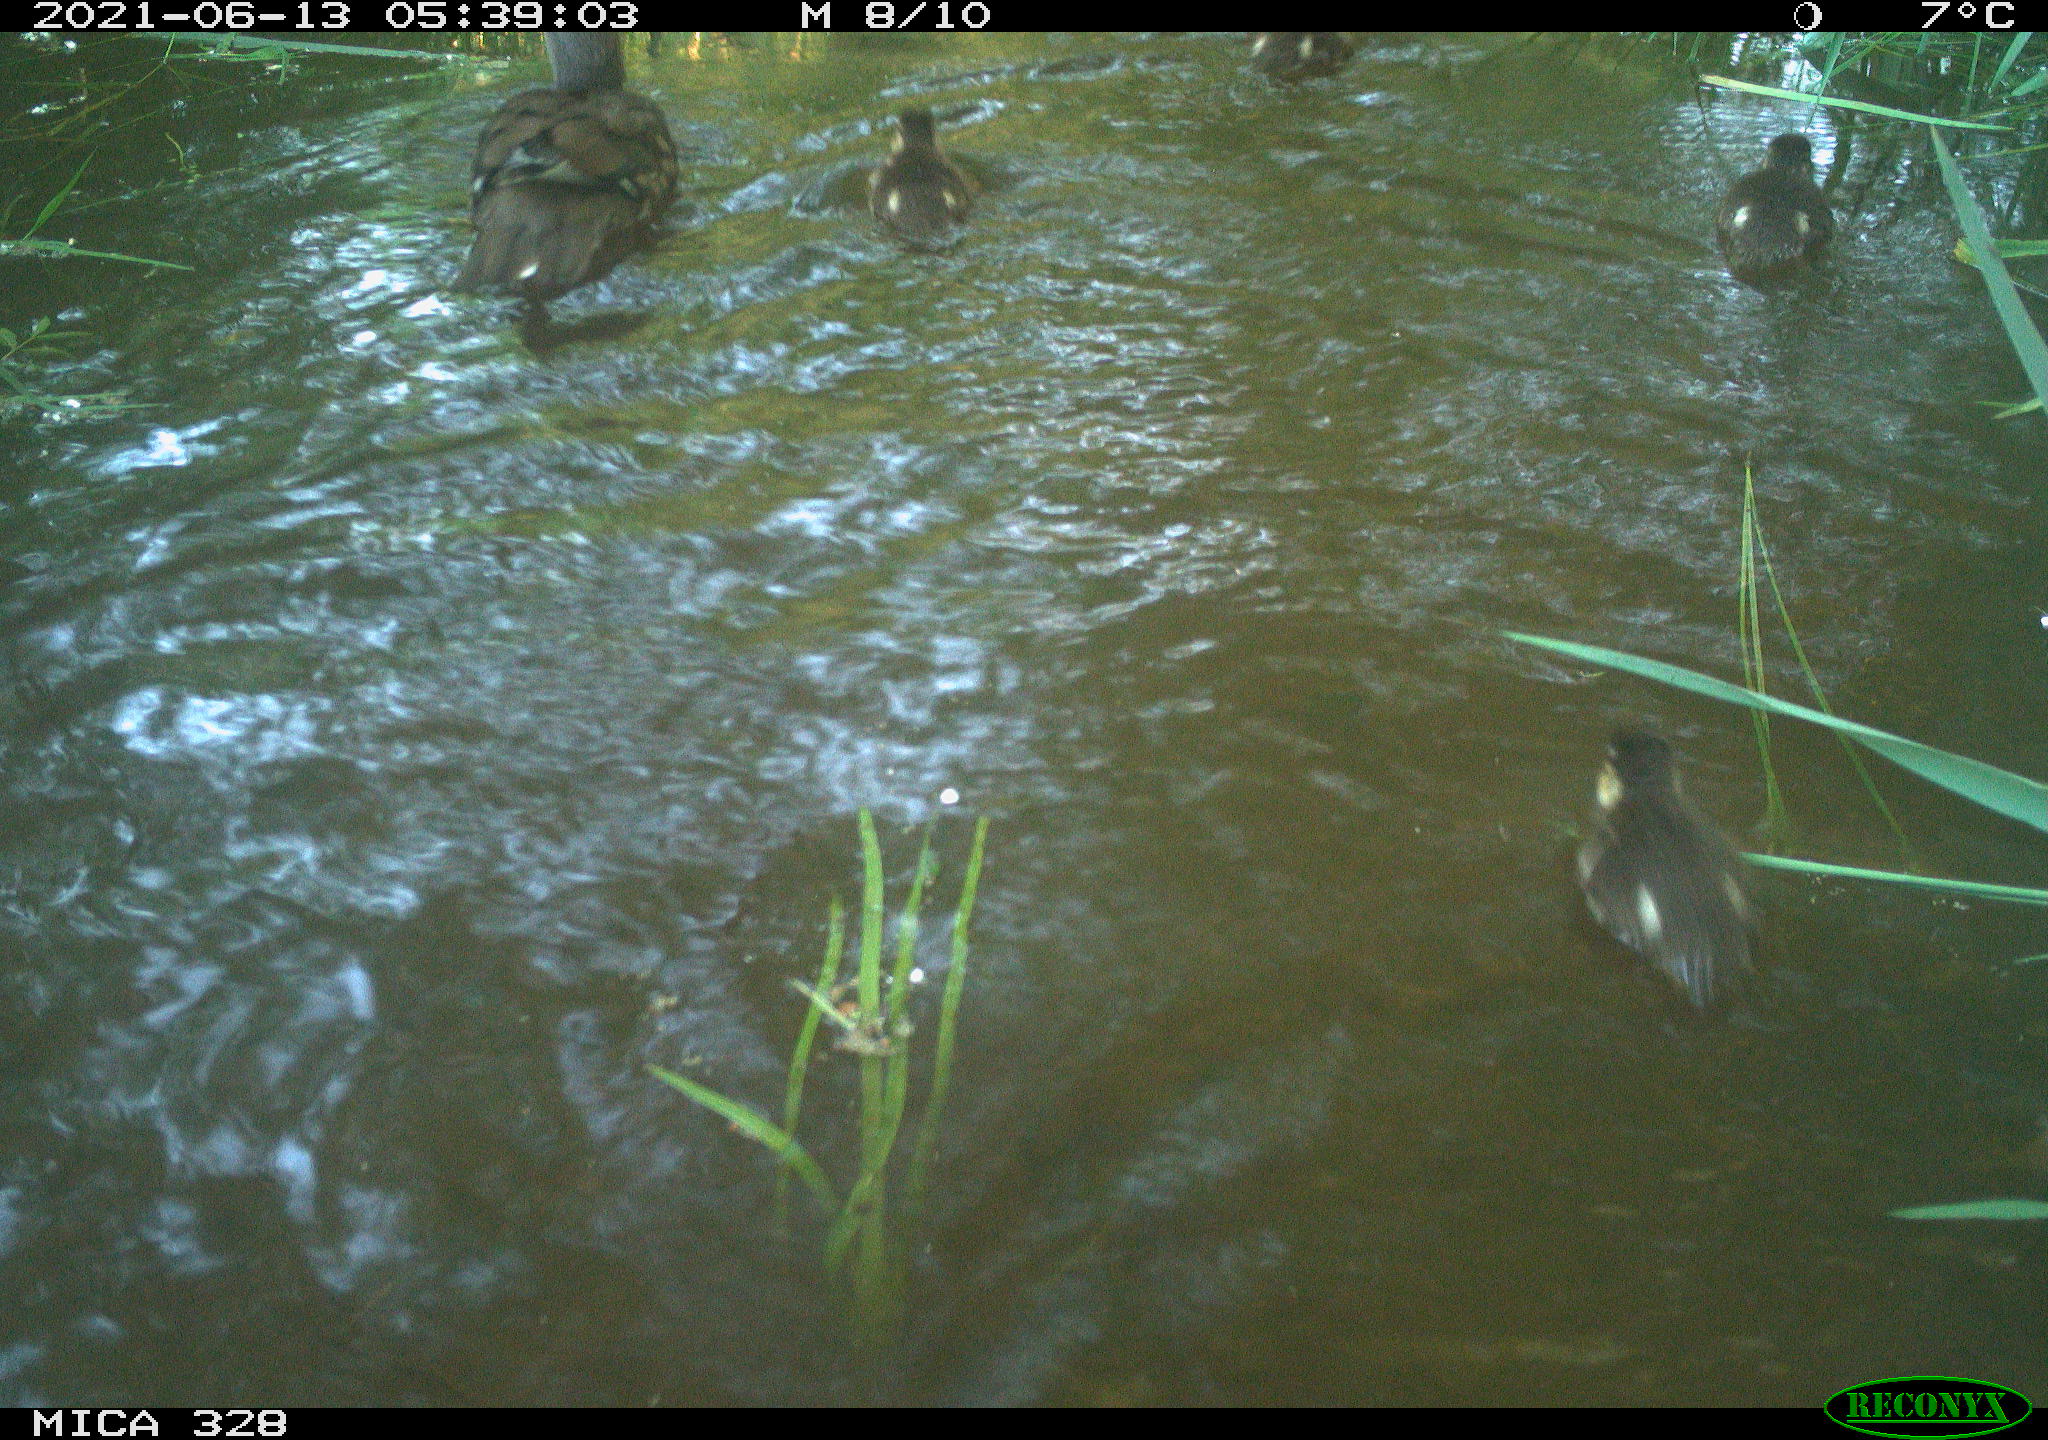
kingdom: Animalia
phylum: Chordata
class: Aves
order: Anseriformes
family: Anatidae
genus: Aix
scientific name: Aix galericulata
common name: Mandarin duck
